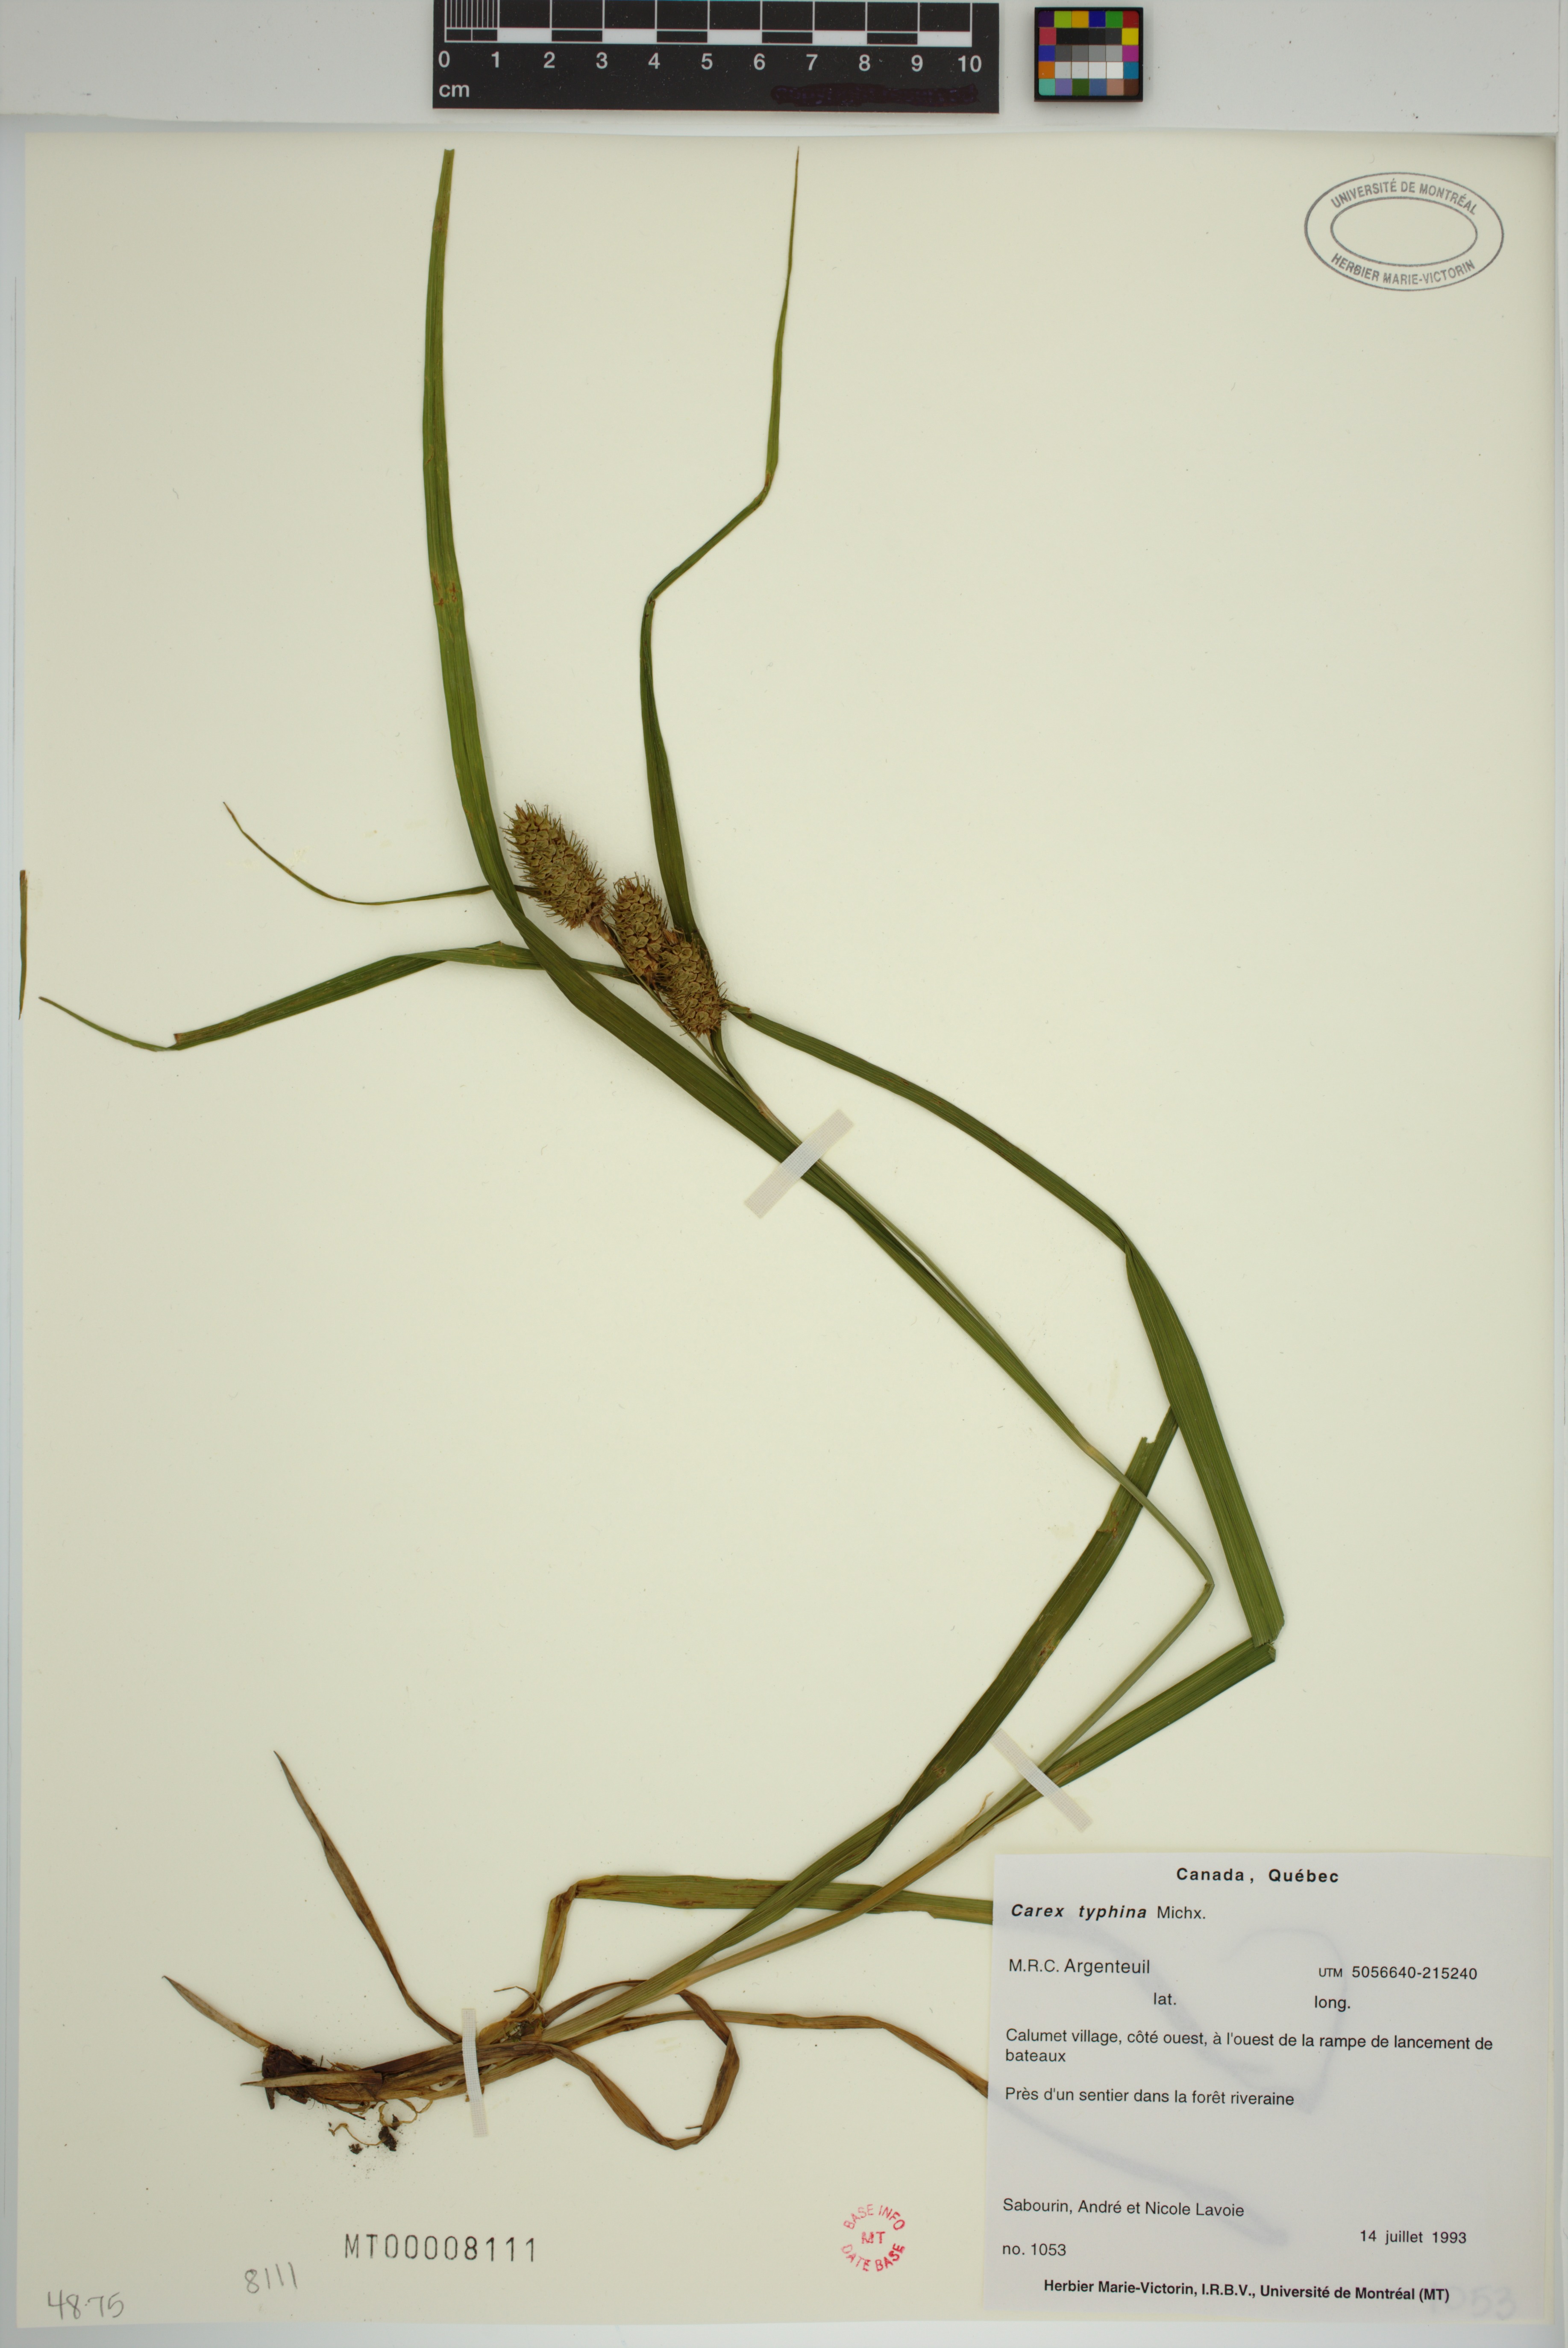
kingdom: Plantae
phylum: Tracheophyta
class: Liliopsida
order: Poales
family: Cyperaceae
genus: Carex
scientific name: Carex typhina
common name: Cattail sedge
